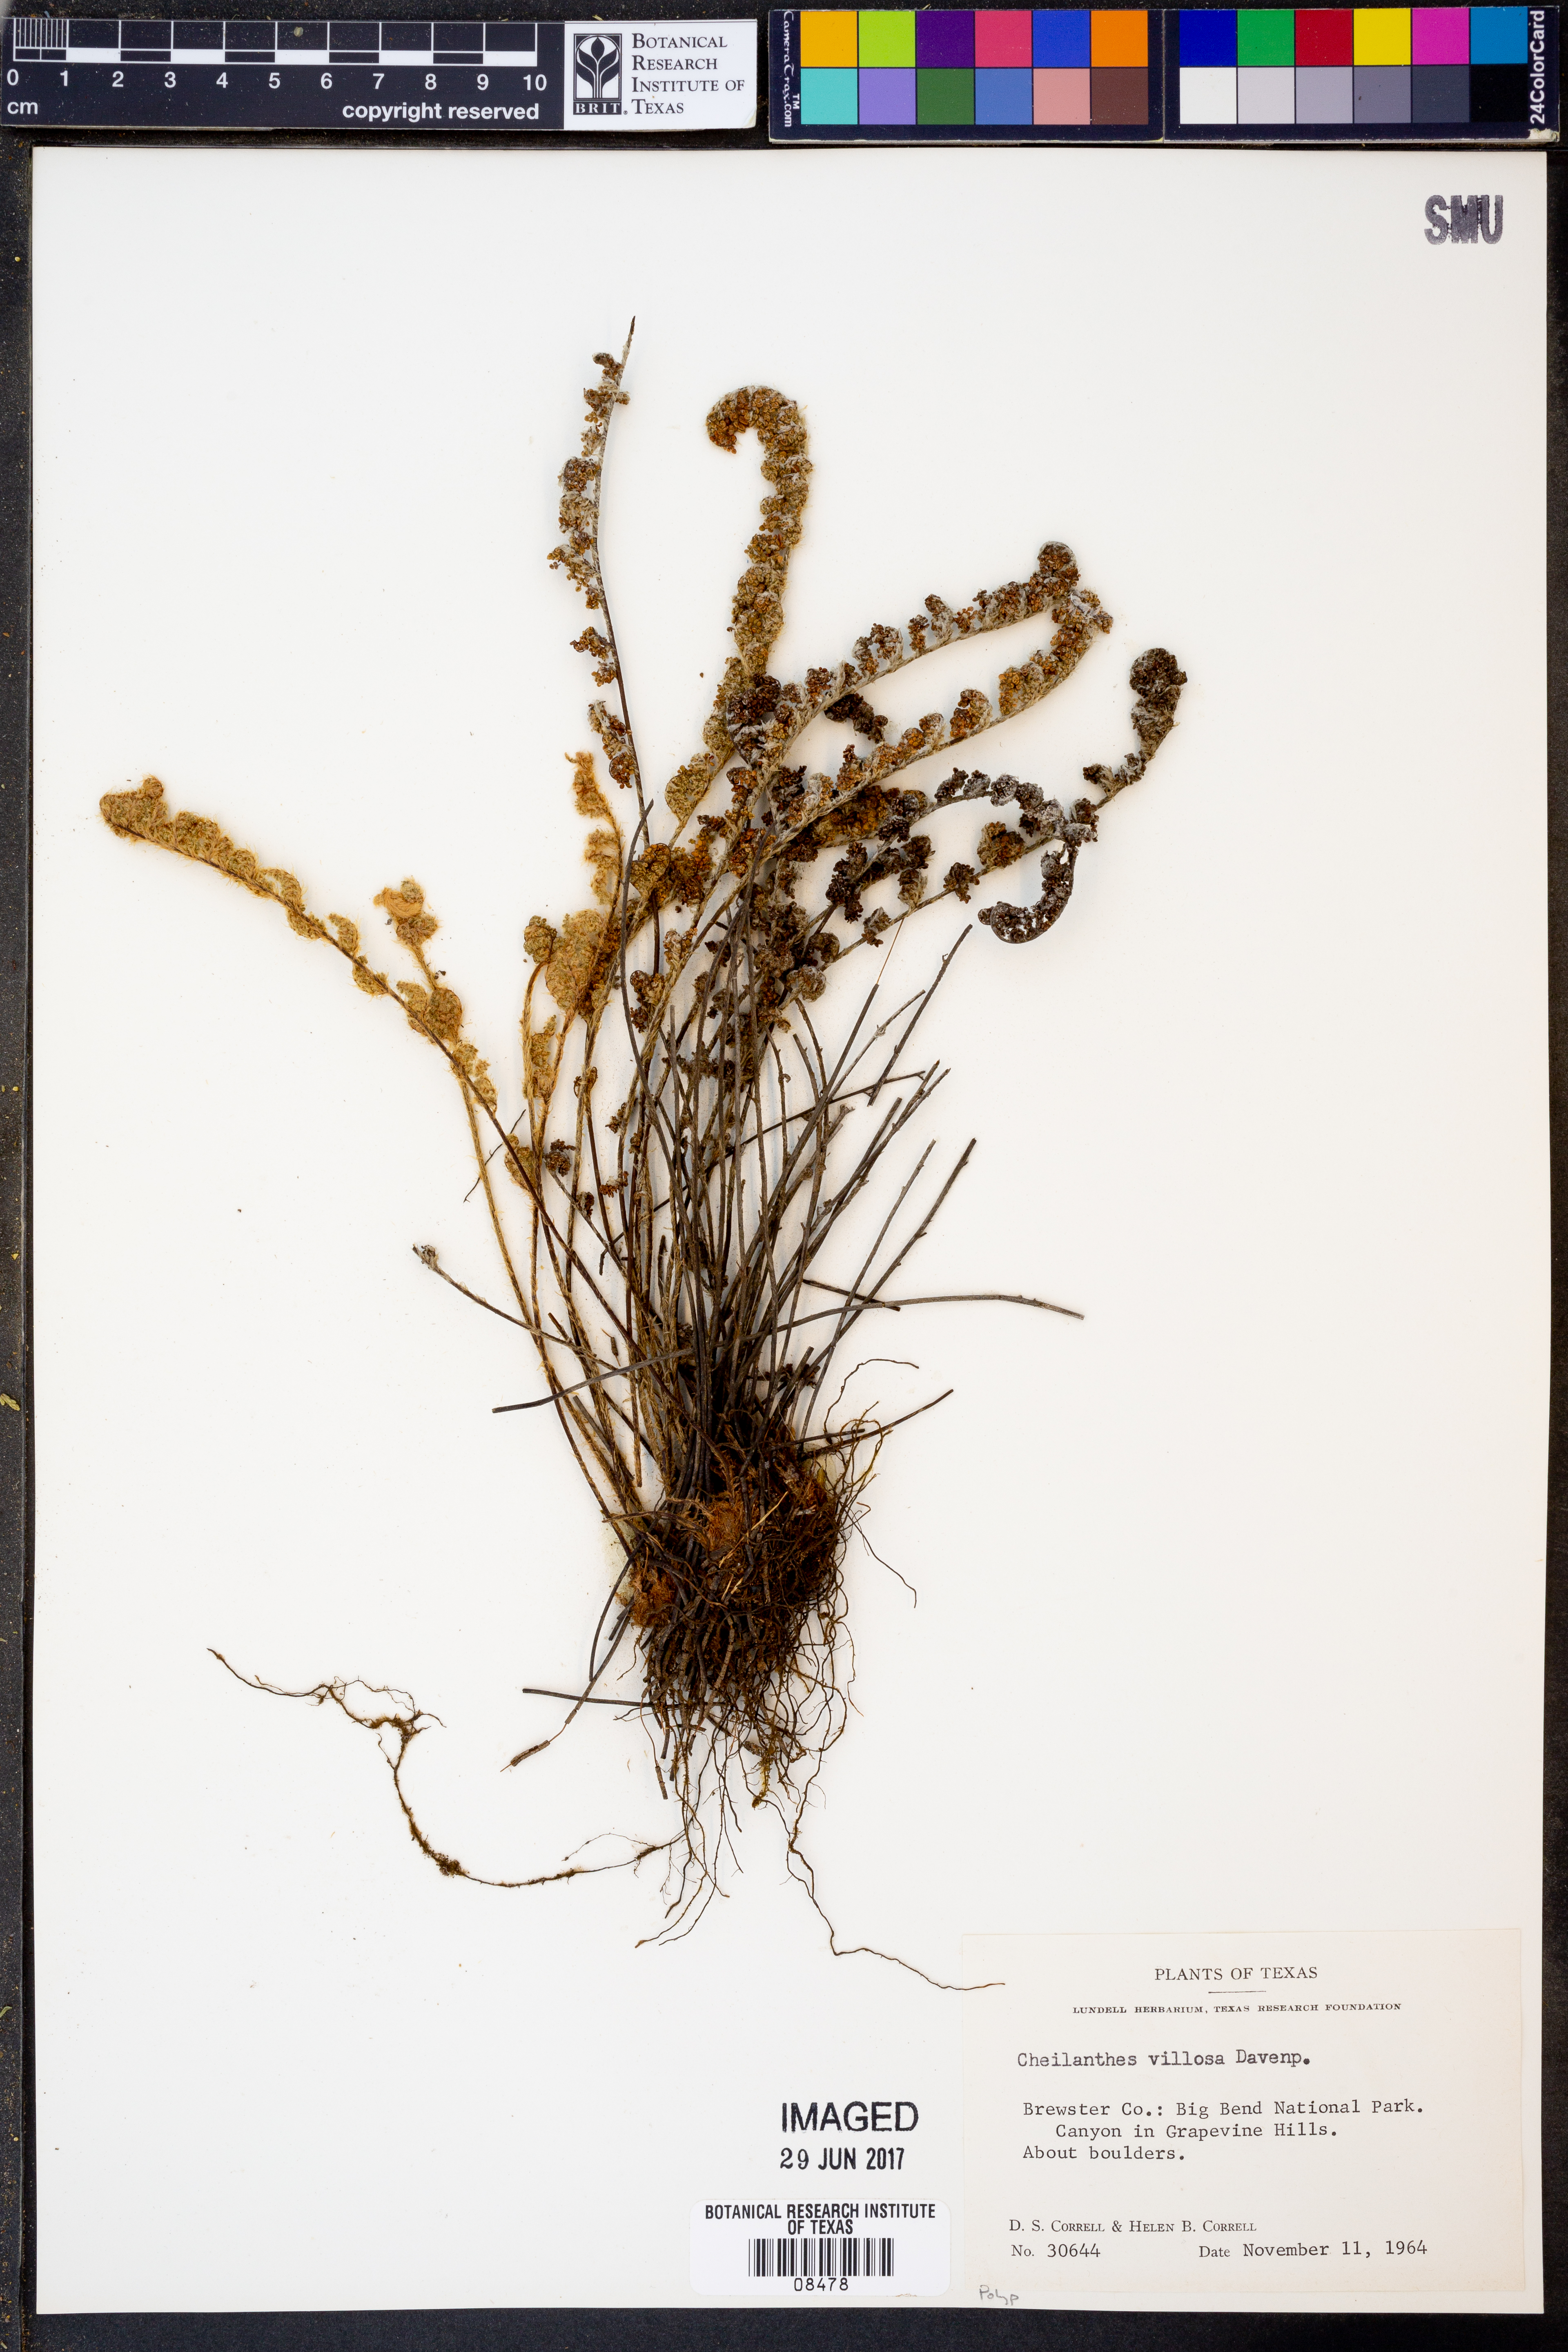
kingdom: Plantae
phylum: Tracheophyta
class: Polypodiopsida
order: Polypodiales
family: Pteridaceae
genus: Myriopteris
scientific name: Myriopteris windhamii
